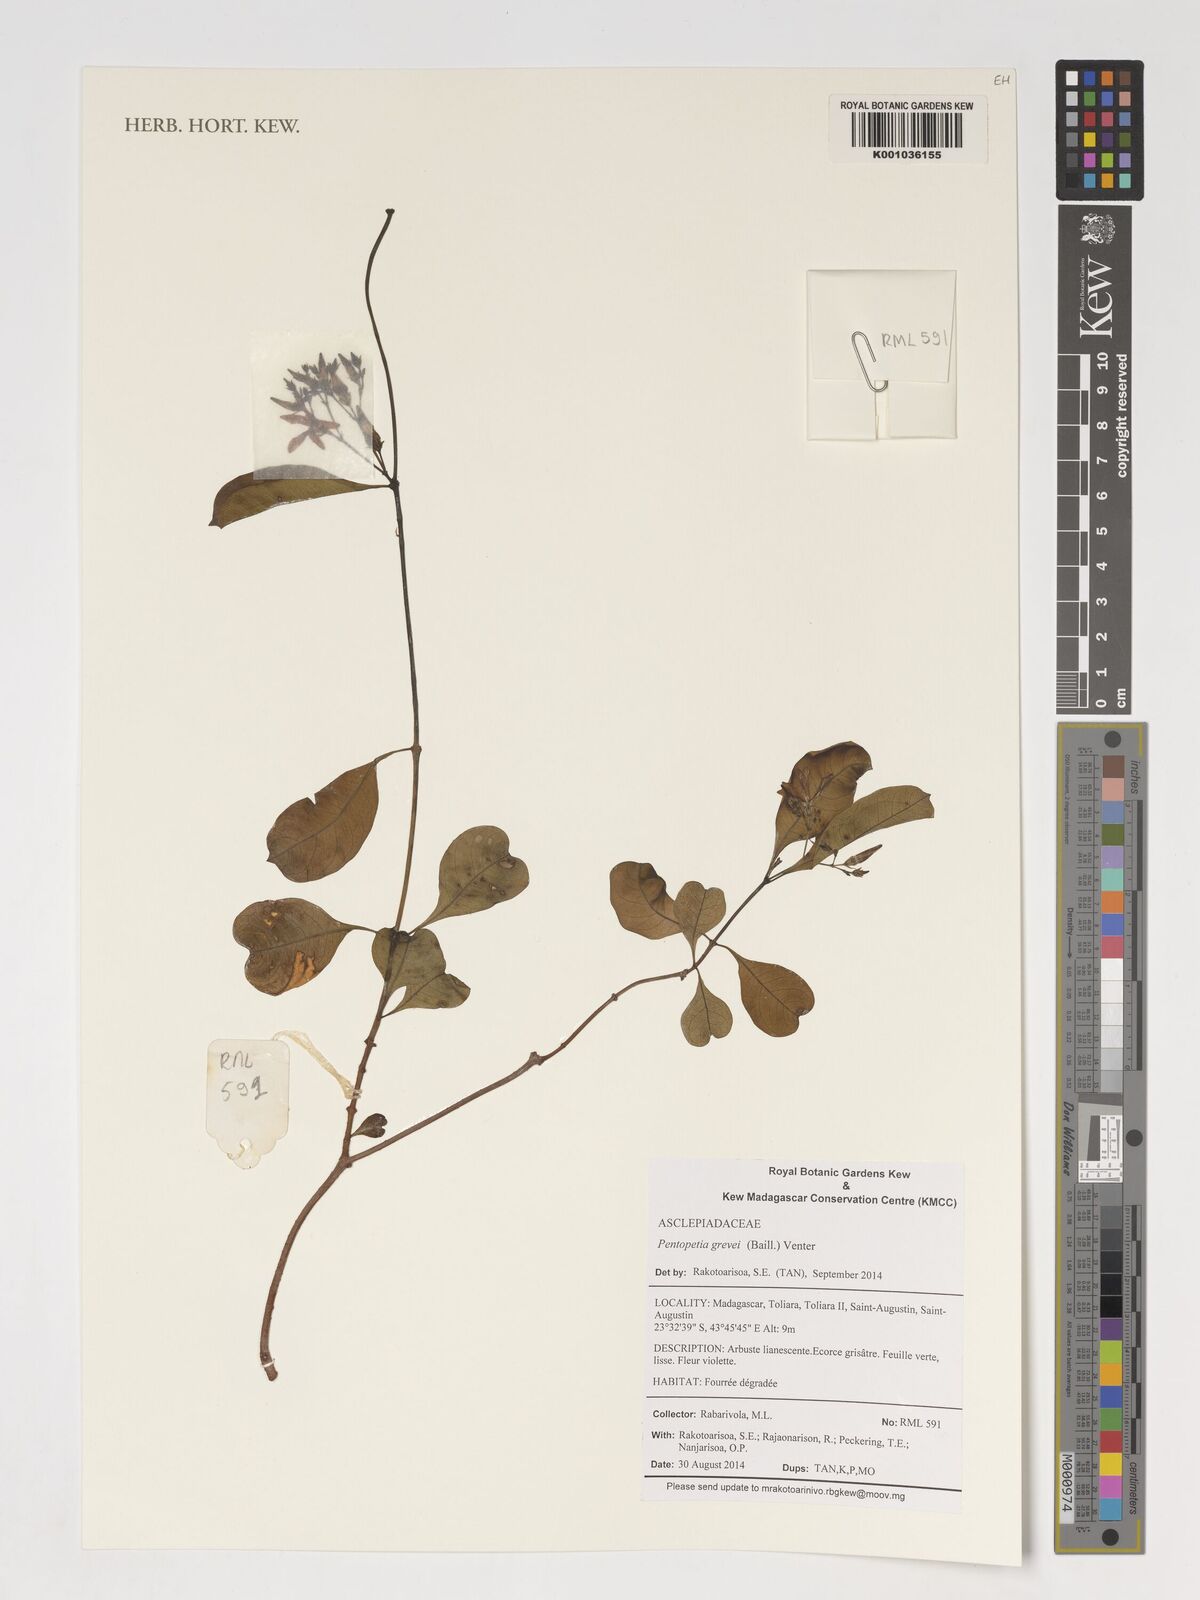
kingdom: Plantae
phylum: Tracheophyta
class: Magnoliopsida
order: Gentianales
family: Apocynaceae
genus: Pentopetia
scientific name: Pentopetia grevei
